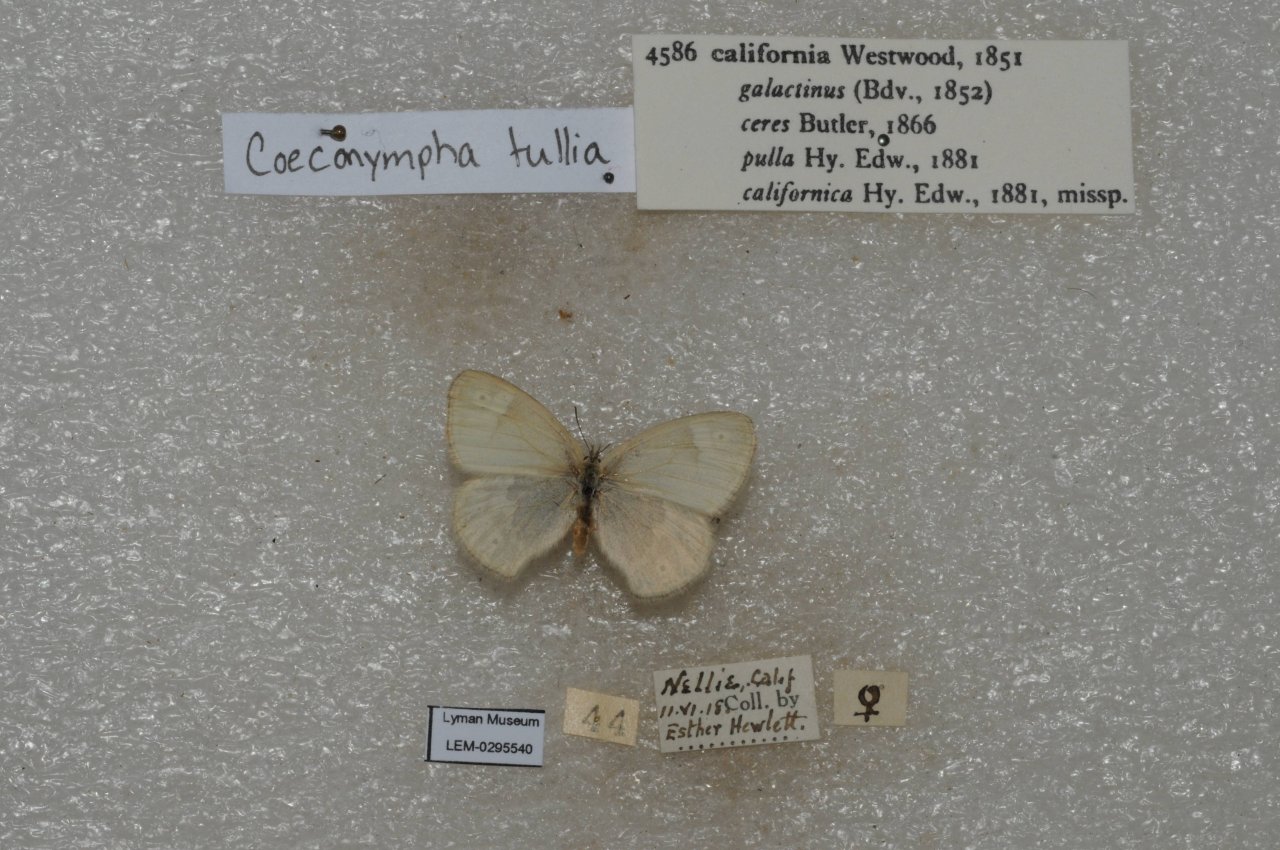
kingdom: Animalia
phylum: Arthropoda
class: Insecta
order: Lepidoptera
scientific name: Lepidoptera
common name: Butterflies
